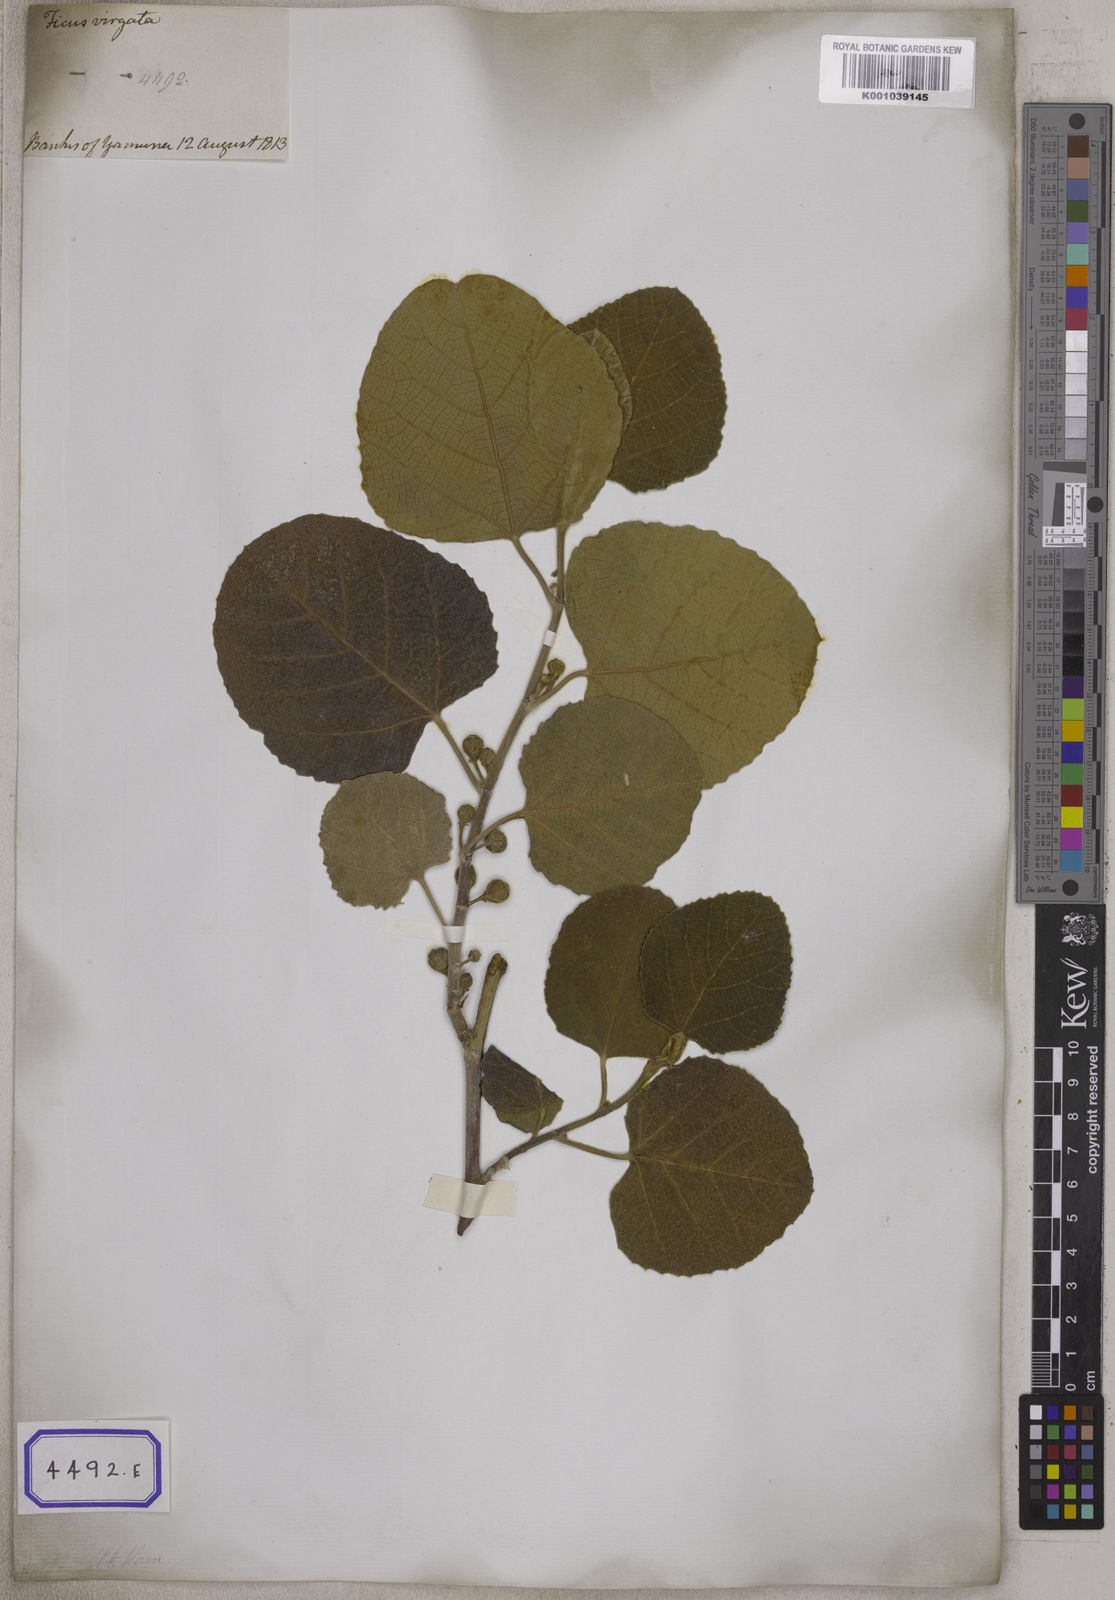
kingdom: Plantae
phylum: Tracheophyta
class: Magnoliopsida
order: Rosales
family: Moraceae
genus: Ficus
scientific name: Ficus palmata
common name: Punjab fig
